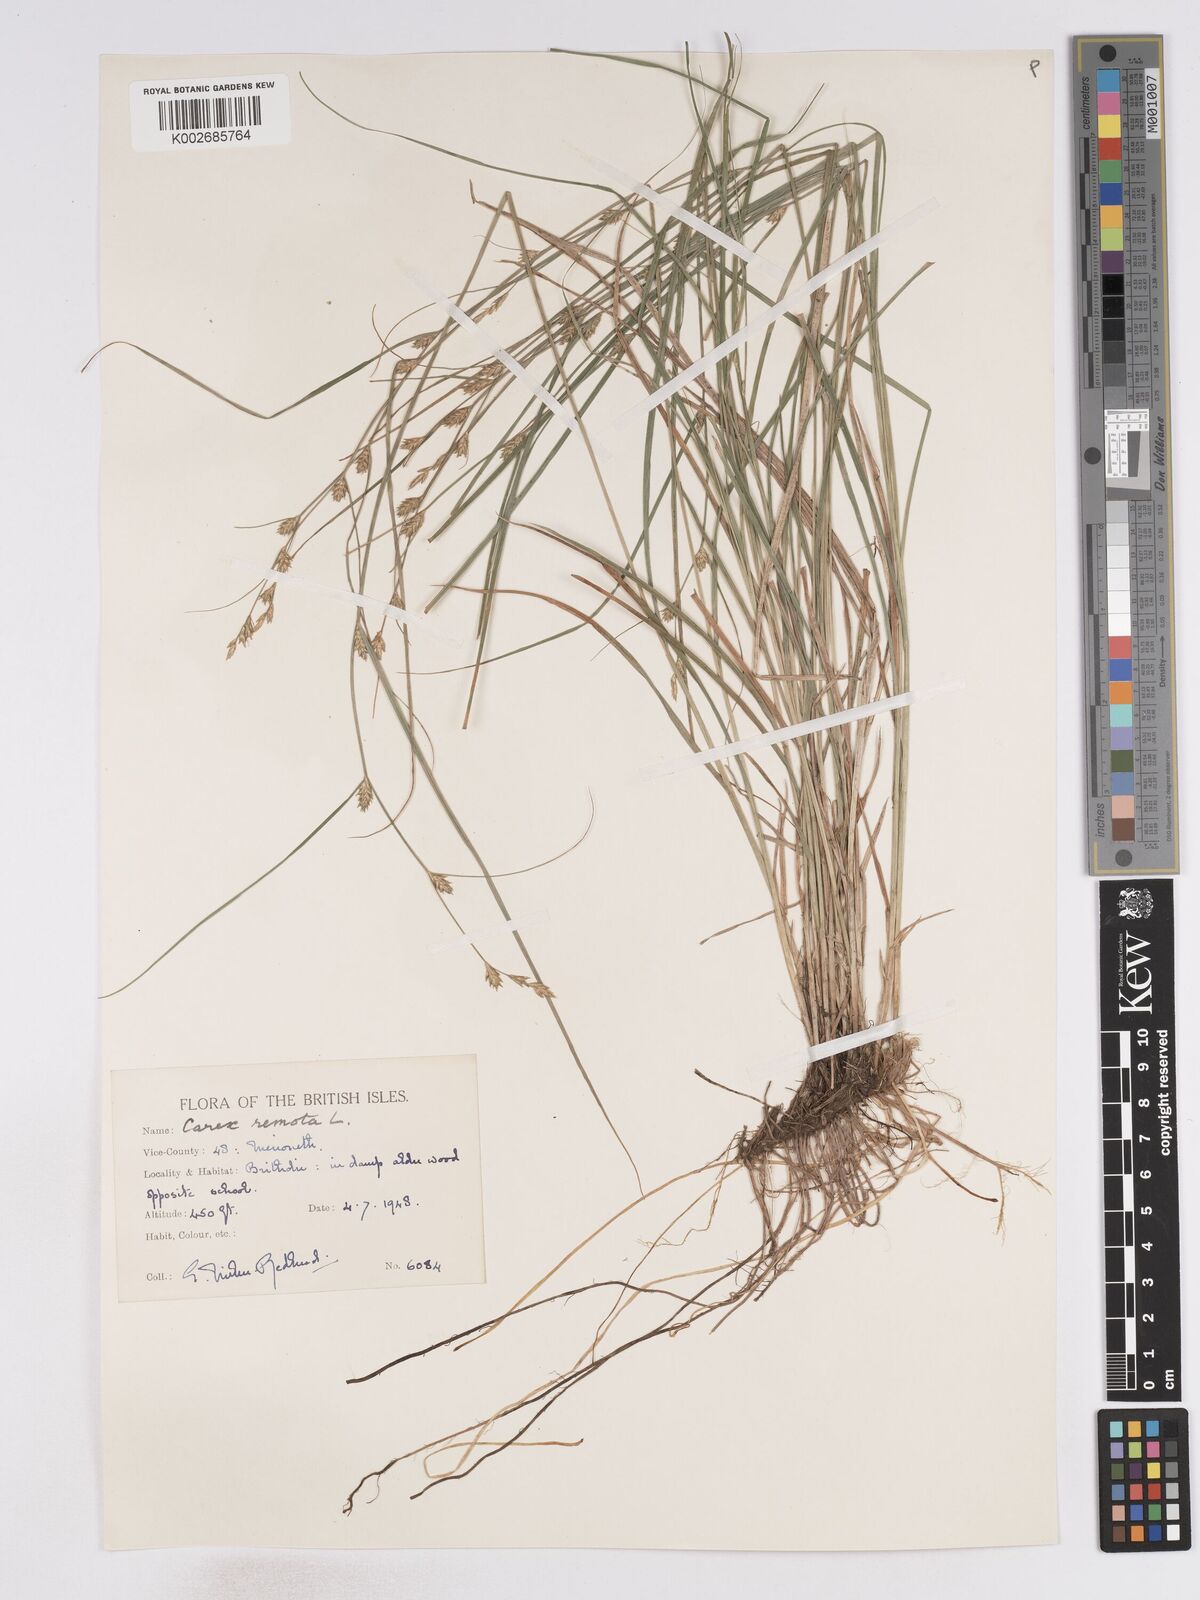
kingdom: Plantae
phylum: Tracheophyta
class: Liliopsida
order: Poales
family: Cyperaceae
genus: Carex
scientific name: Carex remota
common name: Remote sedge
